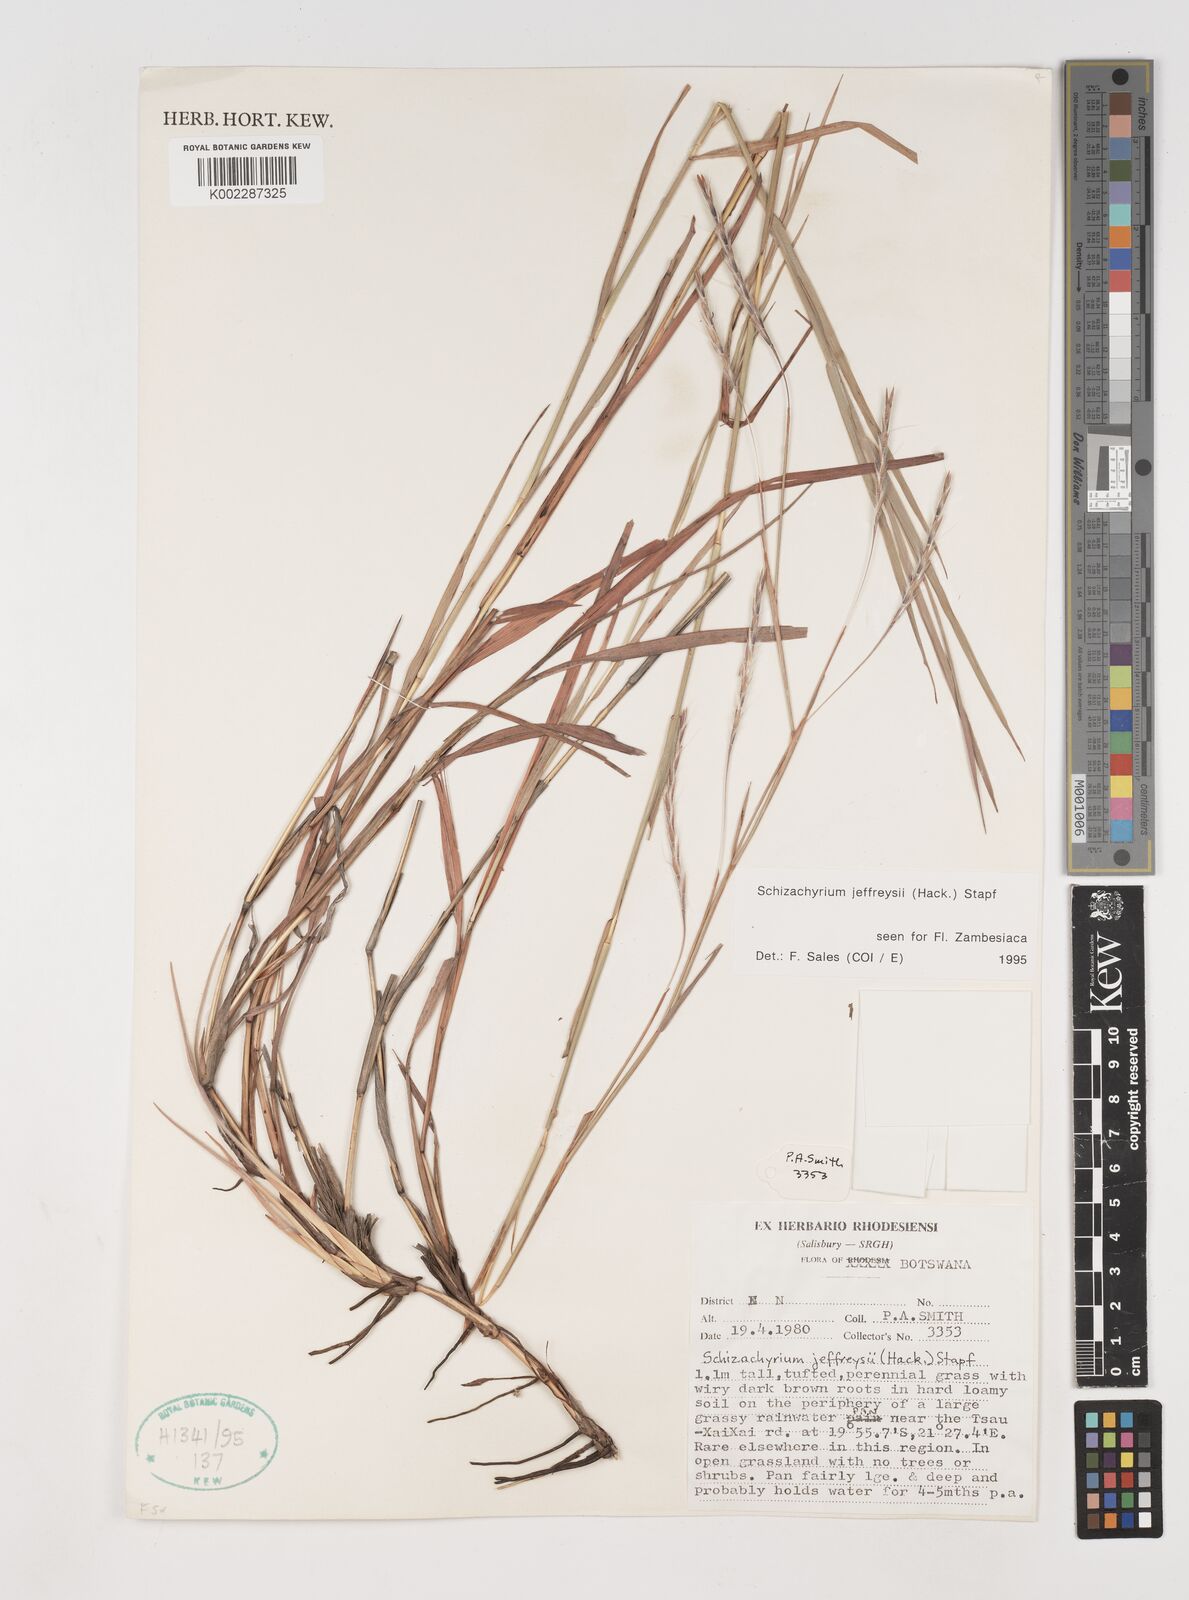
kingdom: Plantae
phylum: Tracheophyta
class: Liliopsida
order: Poales
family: Poaceae
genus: Schizachyrium
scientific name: Schizachyrium jeffreysii
